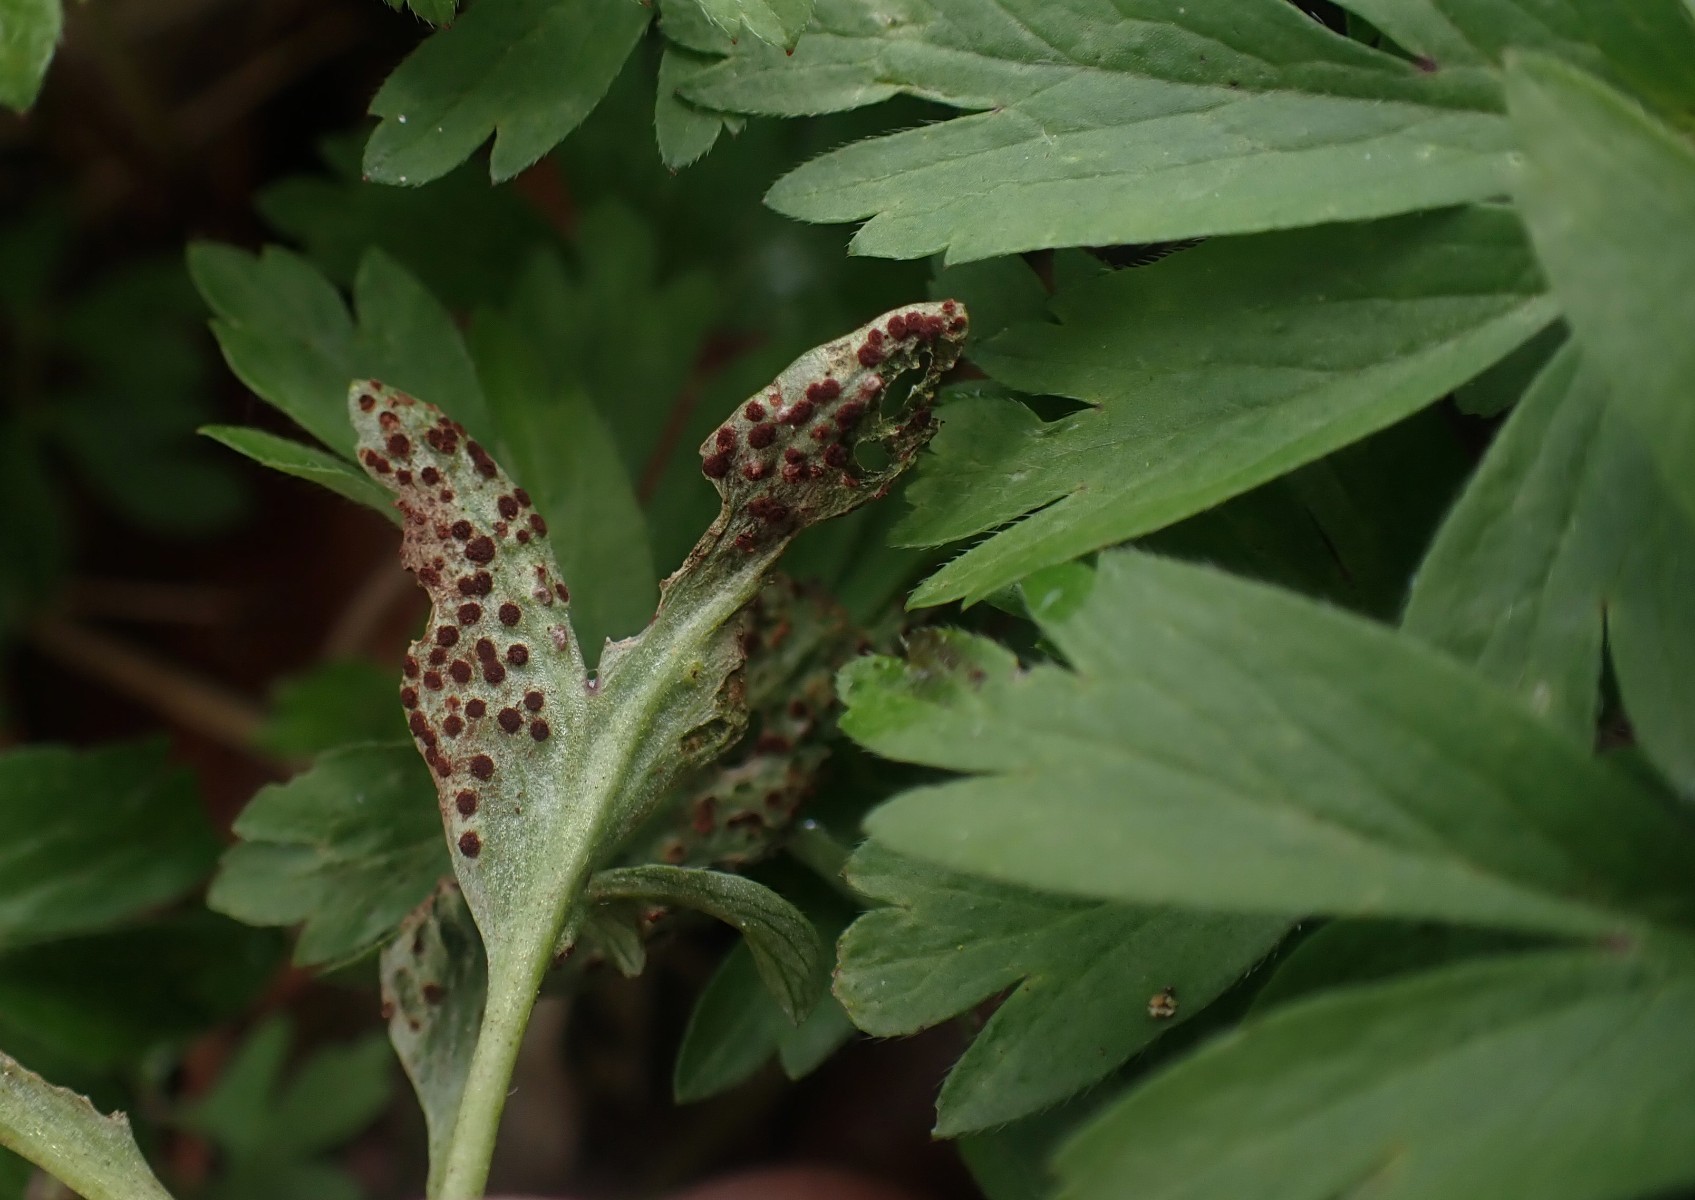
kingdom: Fungi
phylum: Basidiomycota
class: Pucciniomycetes
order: Pucciniales
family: Tranzscheliaceae
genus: Tranzschelia
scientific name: Tranzschelia anemones
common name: anemone-knæksporerust
